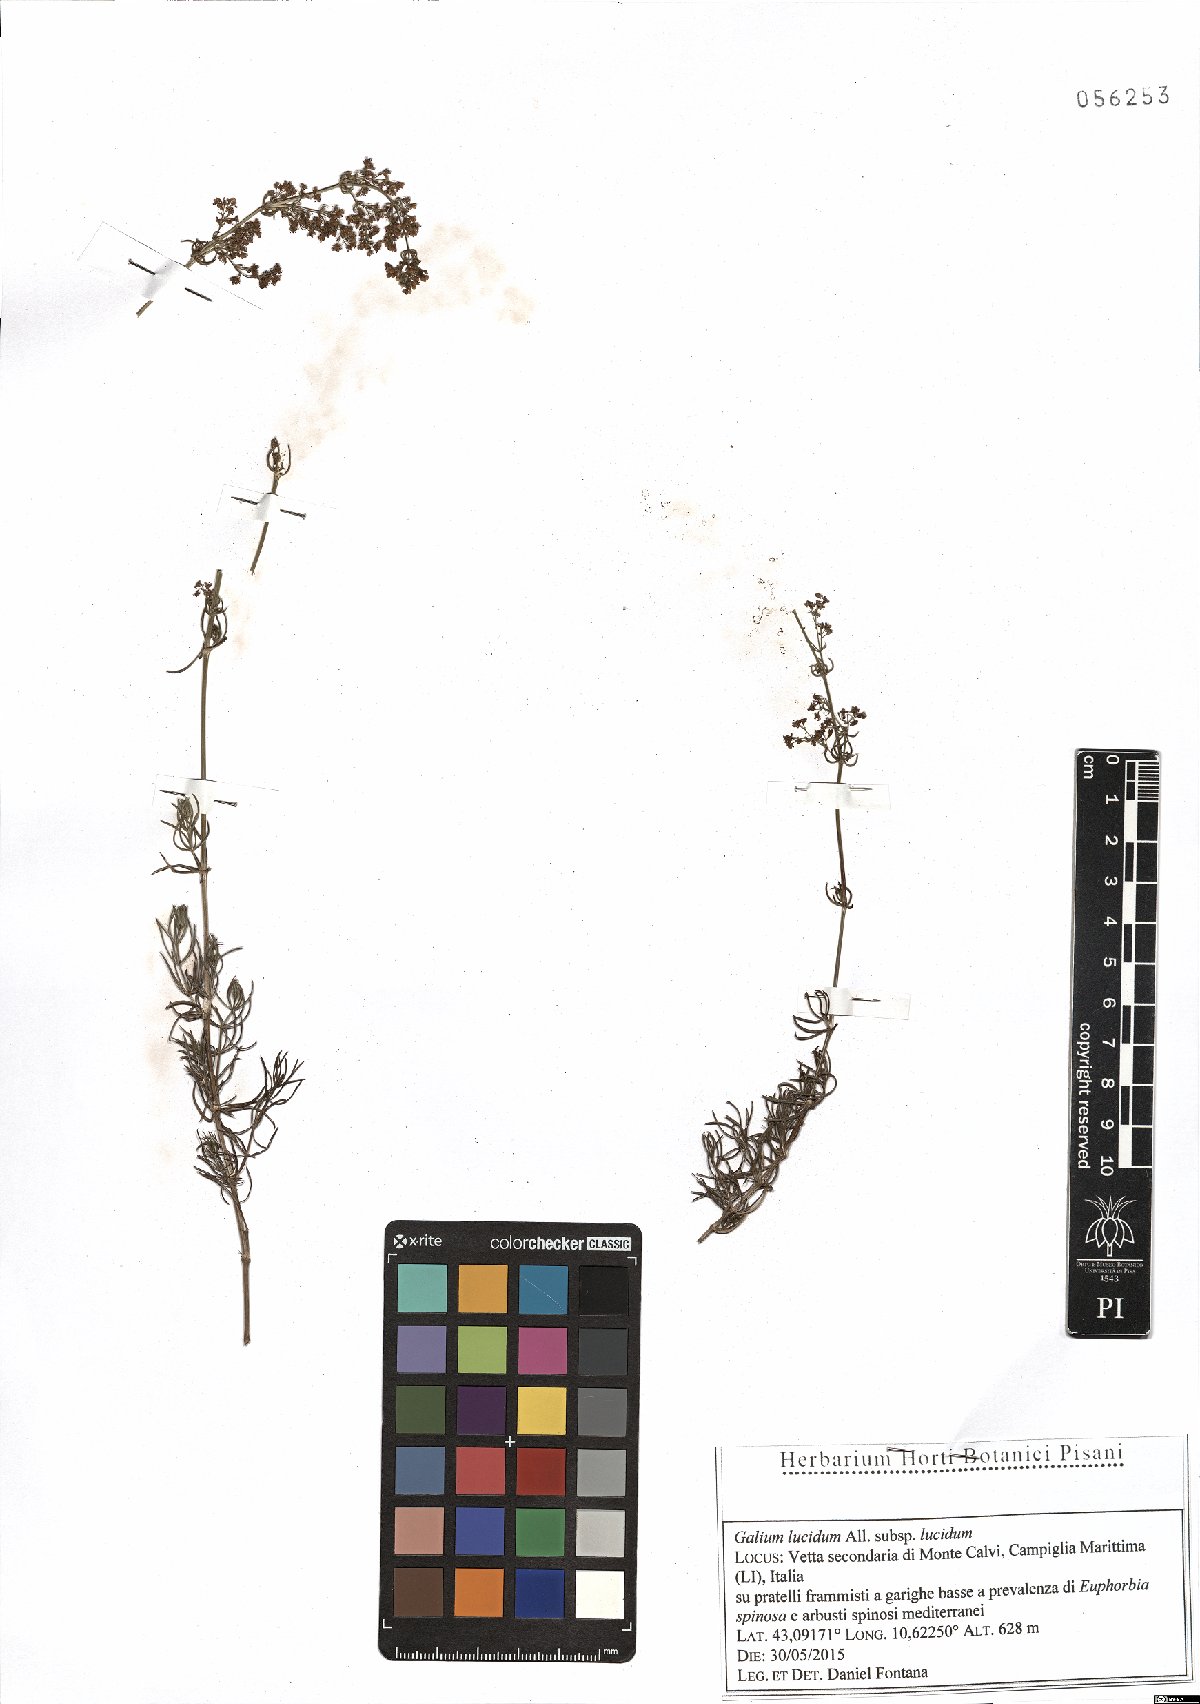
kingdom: Plantae
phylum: Tracheophyta
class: Magnoliopsida
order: Gentianales
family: Rubiaceae
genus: Galium
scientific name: Galium lucidum
